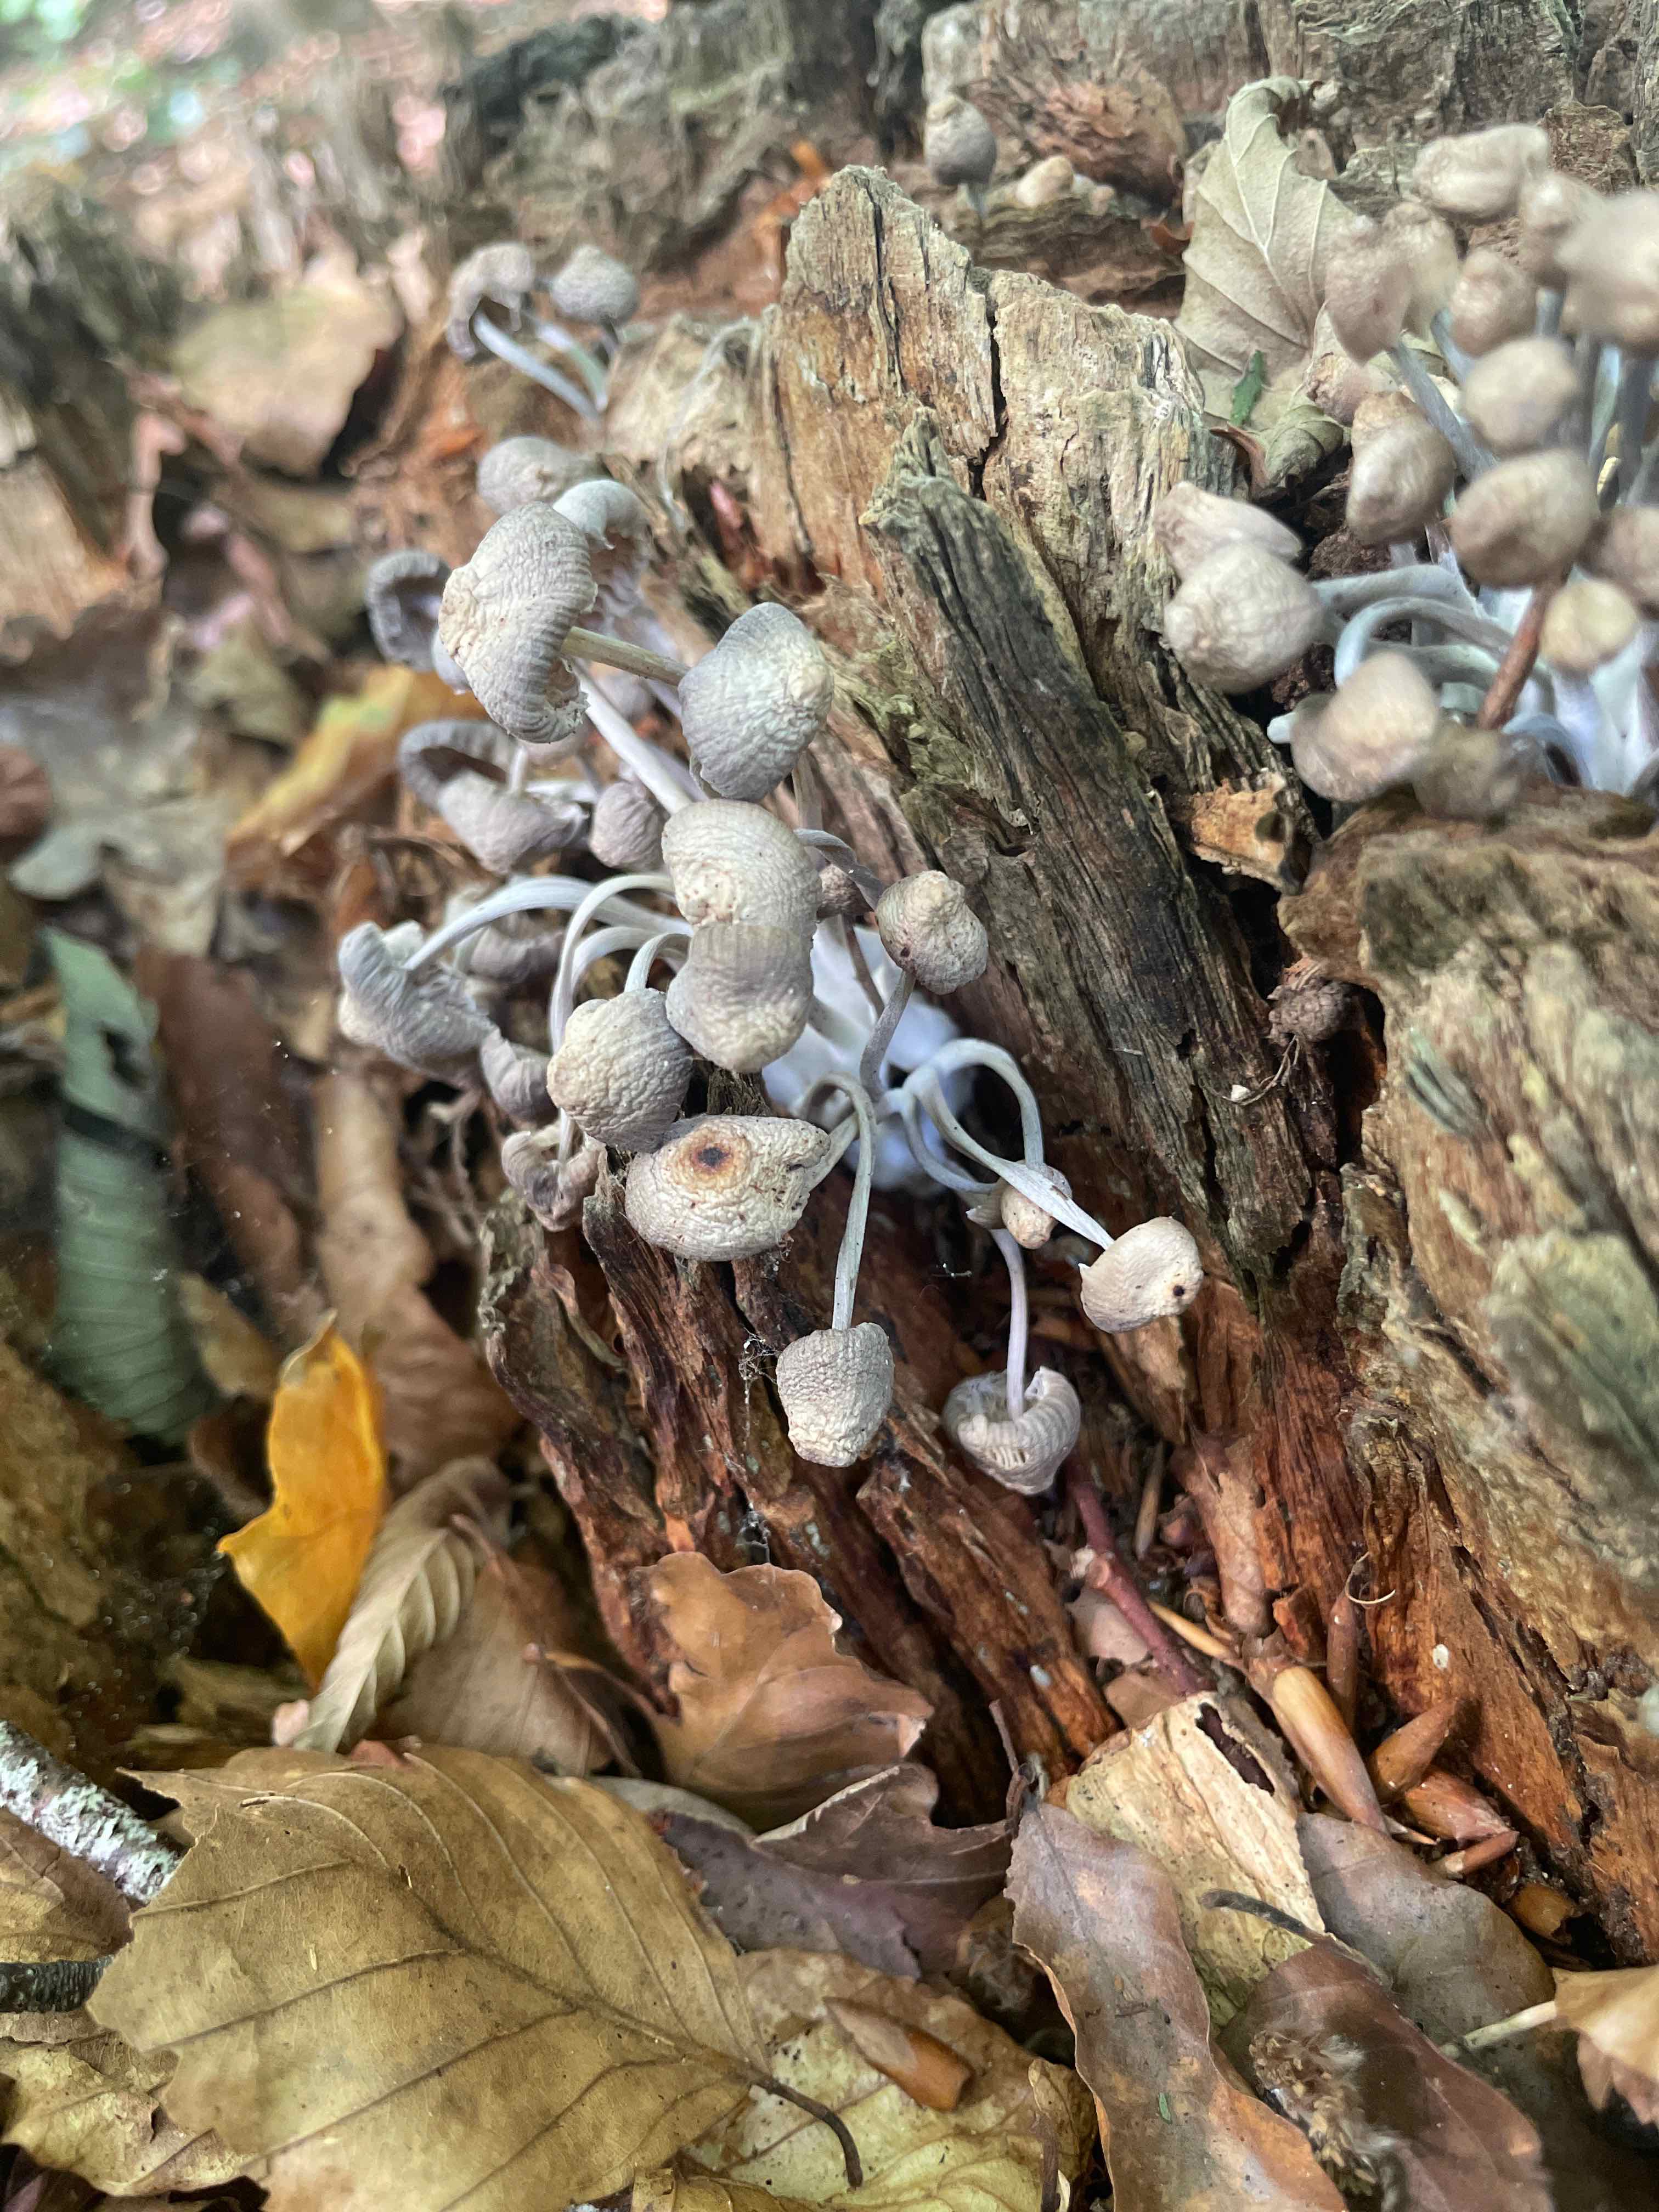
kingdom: Fungi
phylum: Basidiomycota
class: Agaricomycetes
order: Agaricales
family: Mycenaceae
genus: Mycena
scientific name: Mycena
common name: huesvamp
